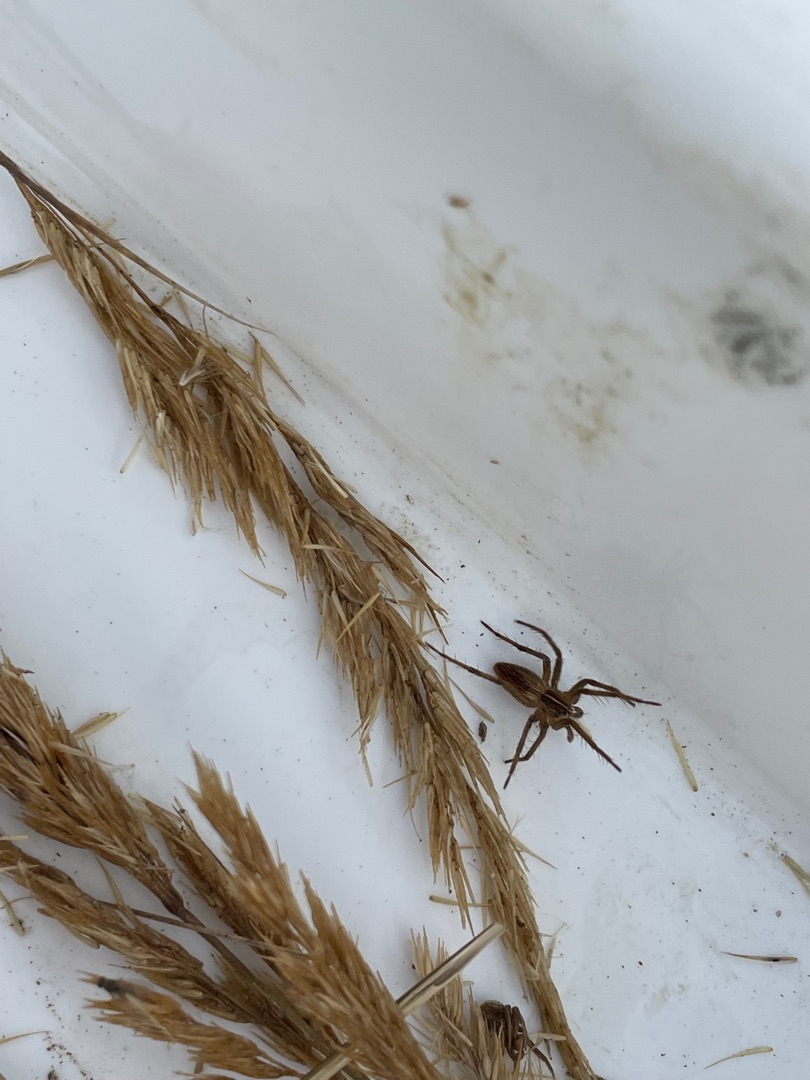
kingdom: Animalia
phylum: Arthropoda
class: Arachnida
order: Araneae
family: Pisauridae
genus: Pisaura
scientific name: Pisaura mirabilis
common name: Almindelig rovedderkop
